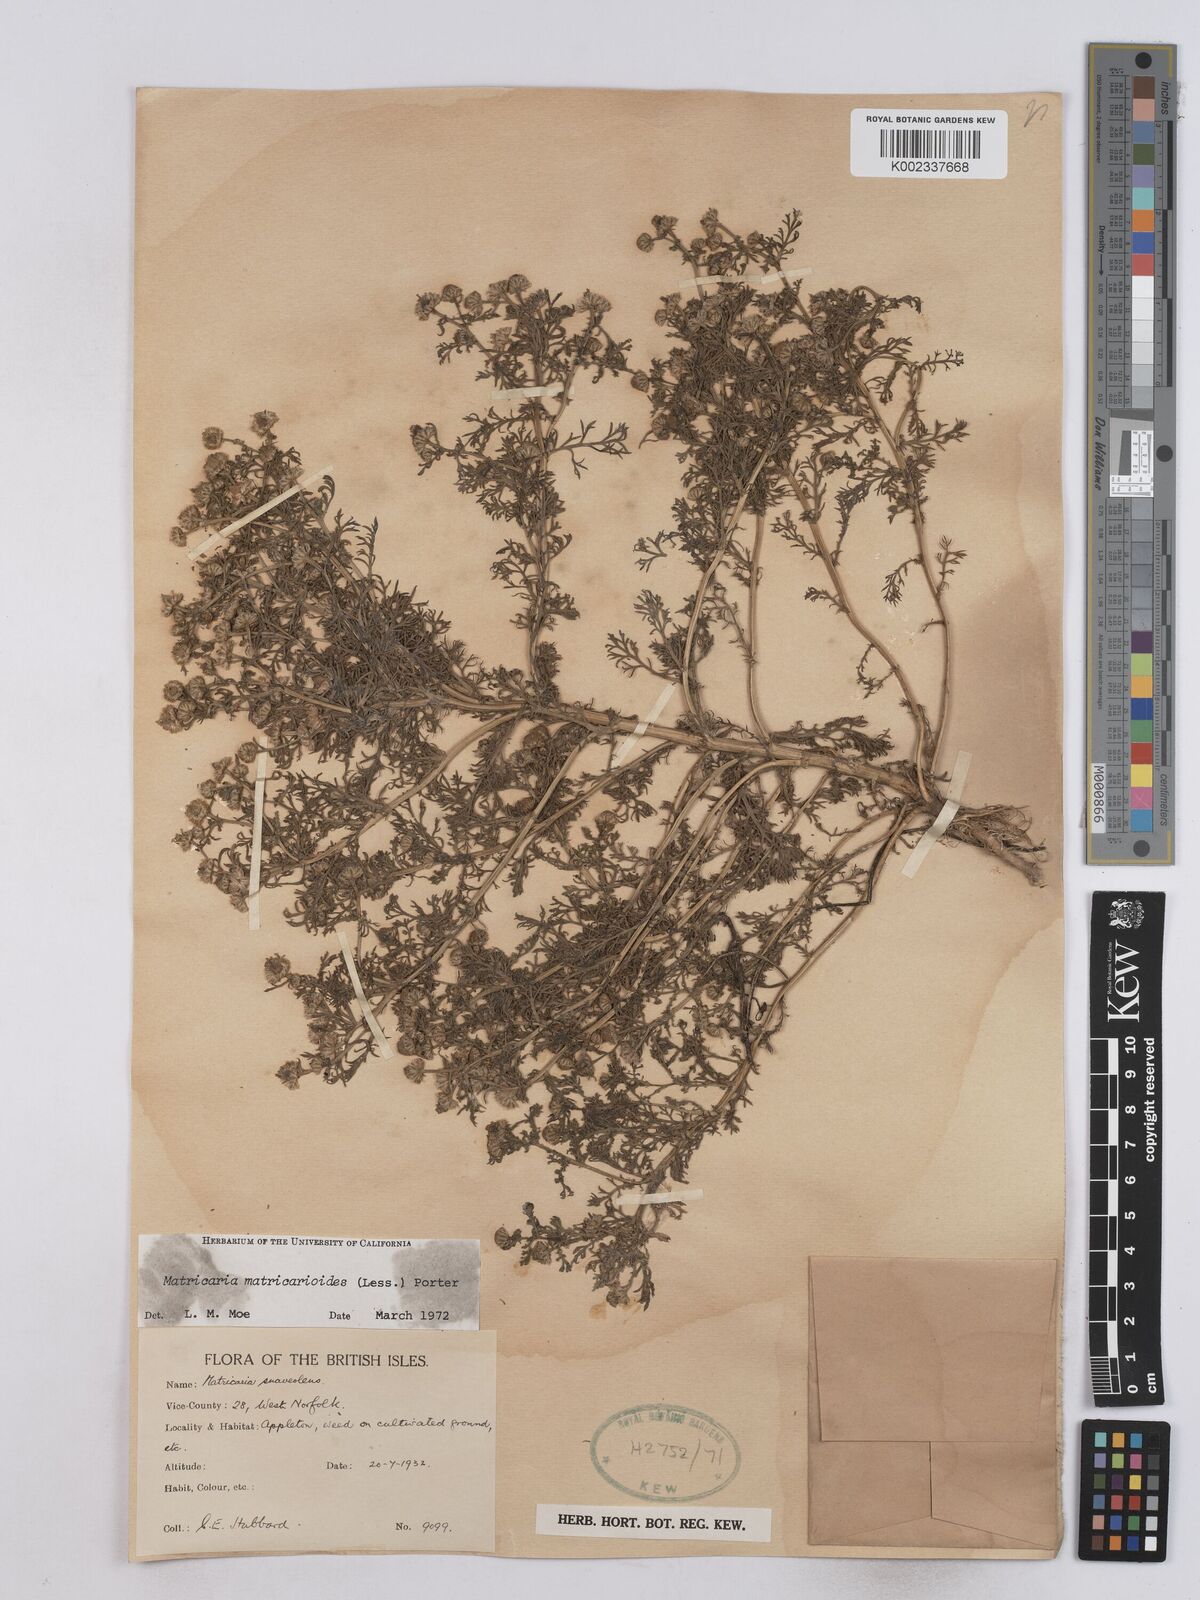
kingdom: Plantae
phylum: Tracheophyta
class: Magnoliopsida
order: Asterales
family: Asteraceae
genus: Matricaria
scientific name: Matricaria discoidea
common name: Disc mayweed
